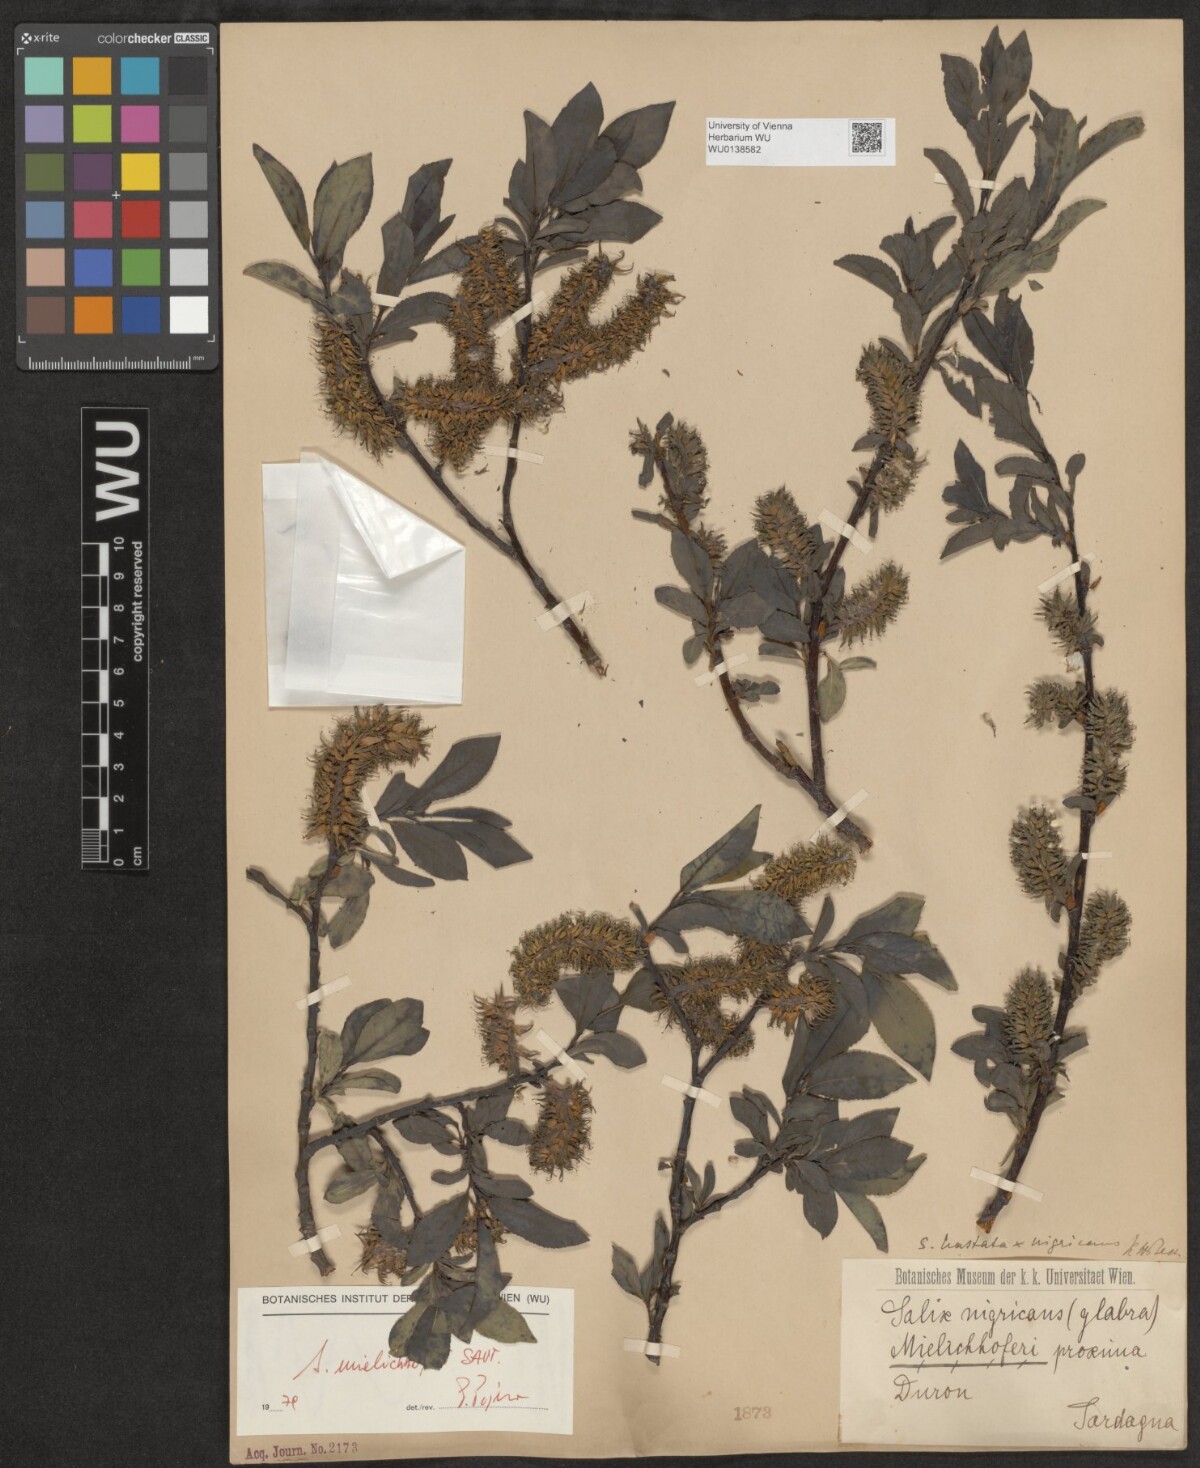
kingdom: Plantae
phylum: Tracheophyta
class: Magnoliopsida
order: Malpighiales
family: Salicaceae
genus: Salix
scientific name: Salix mielichhoferi
